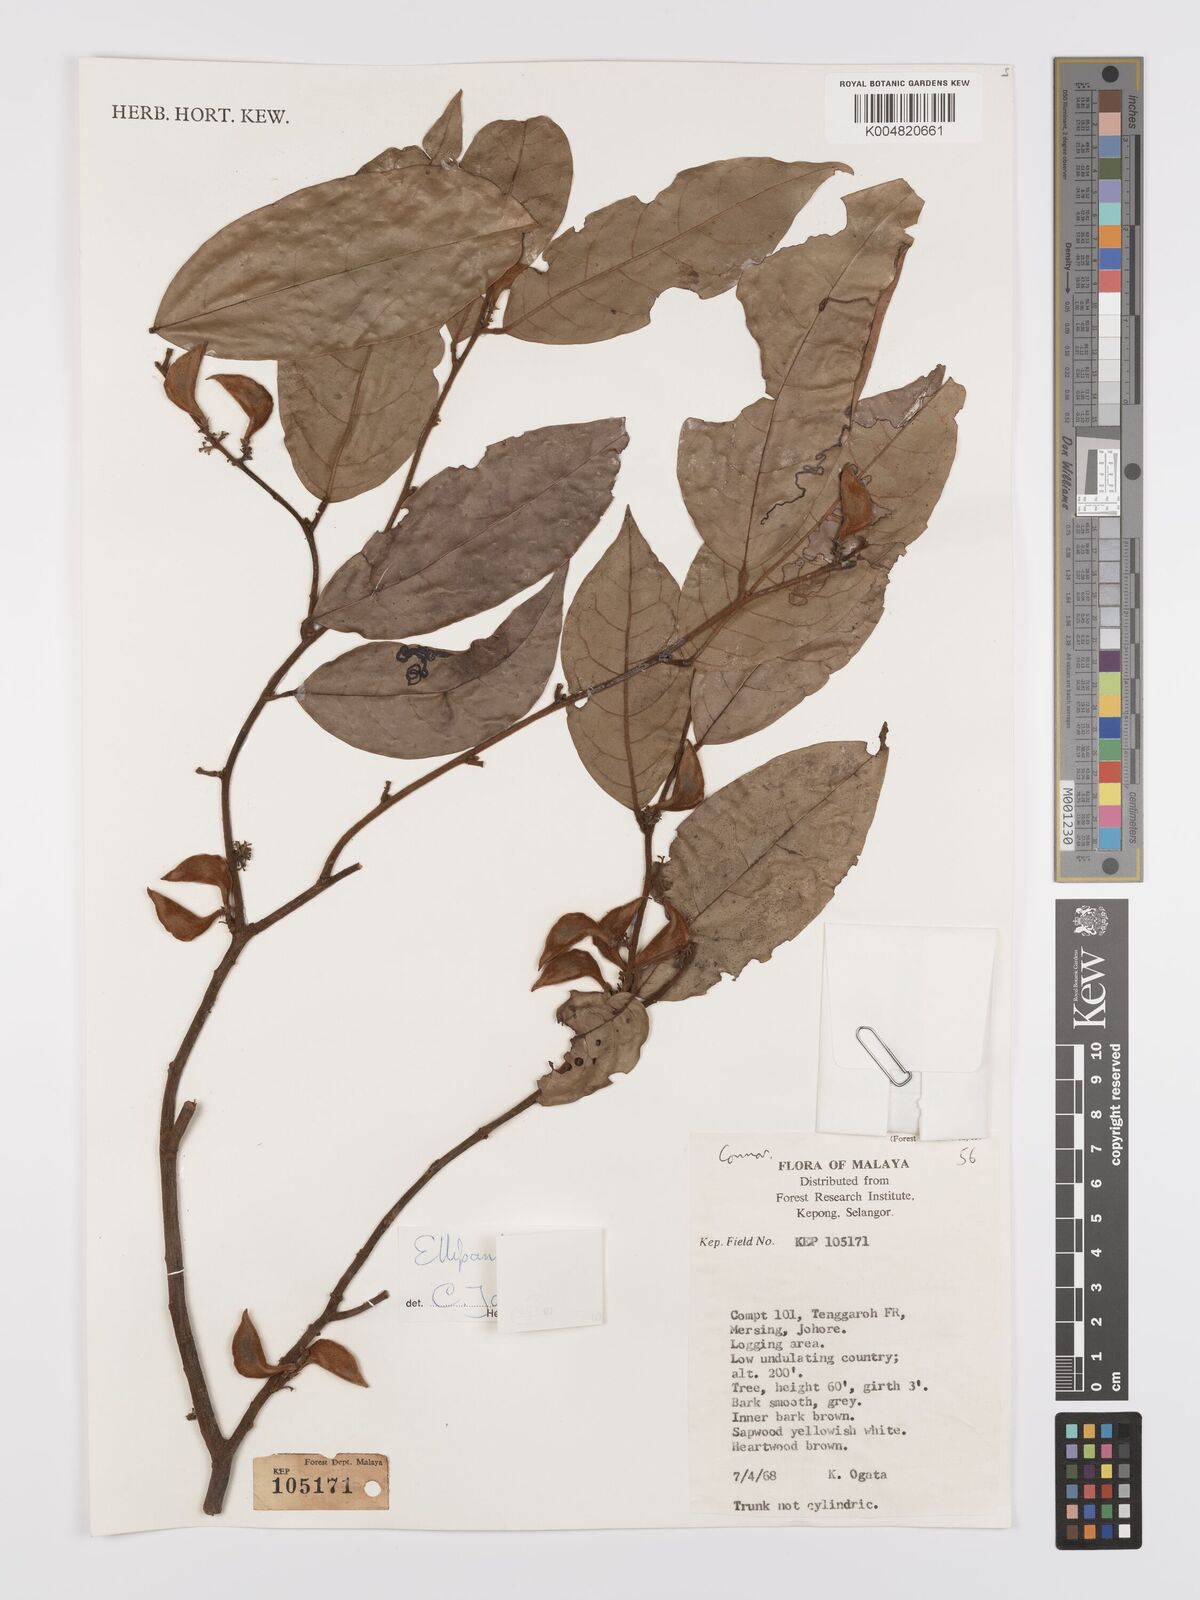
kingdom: Plantae
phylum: Tracheophyta
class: Magnoliopsida
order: Oxalidales
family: Connaraceae
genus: Ellipanthus
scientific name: Ellipanthus
